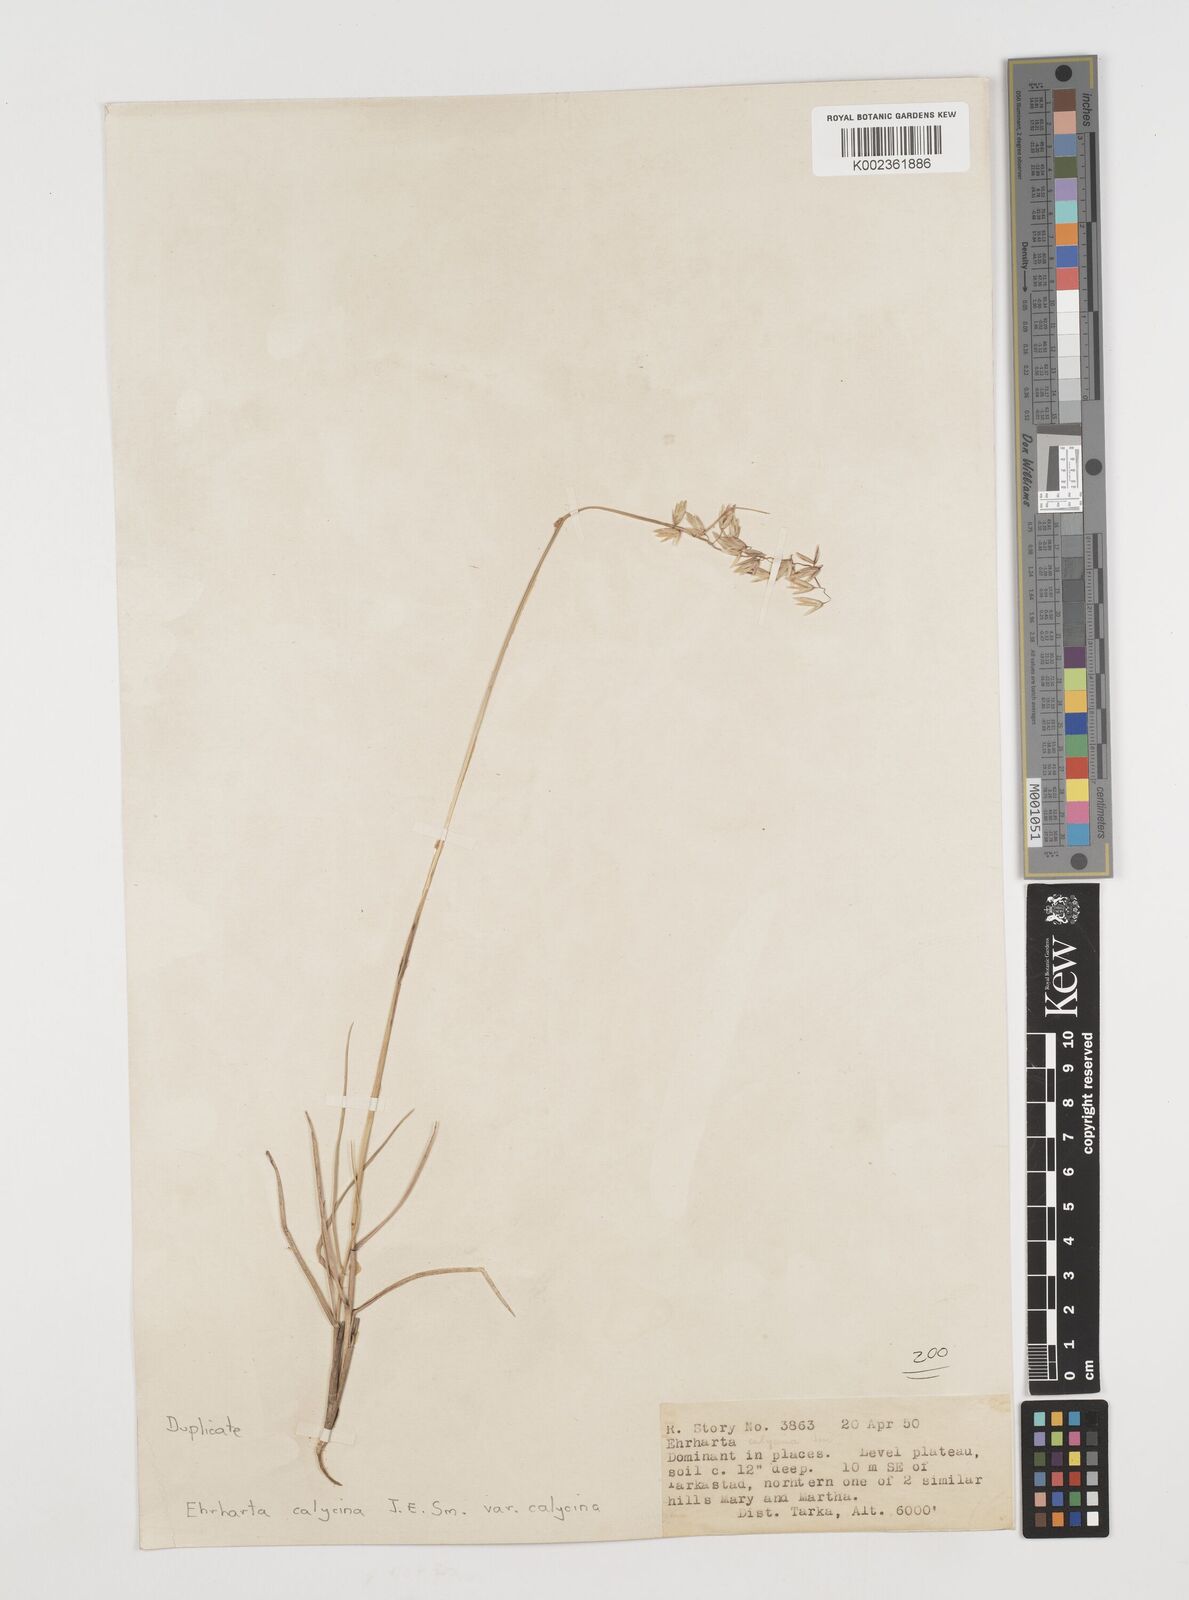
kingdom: Plantae
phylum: Tracheophyta
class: Liliopsida
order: Poales
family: Poaceae
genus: Ehrharta
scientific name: Ehrharta
